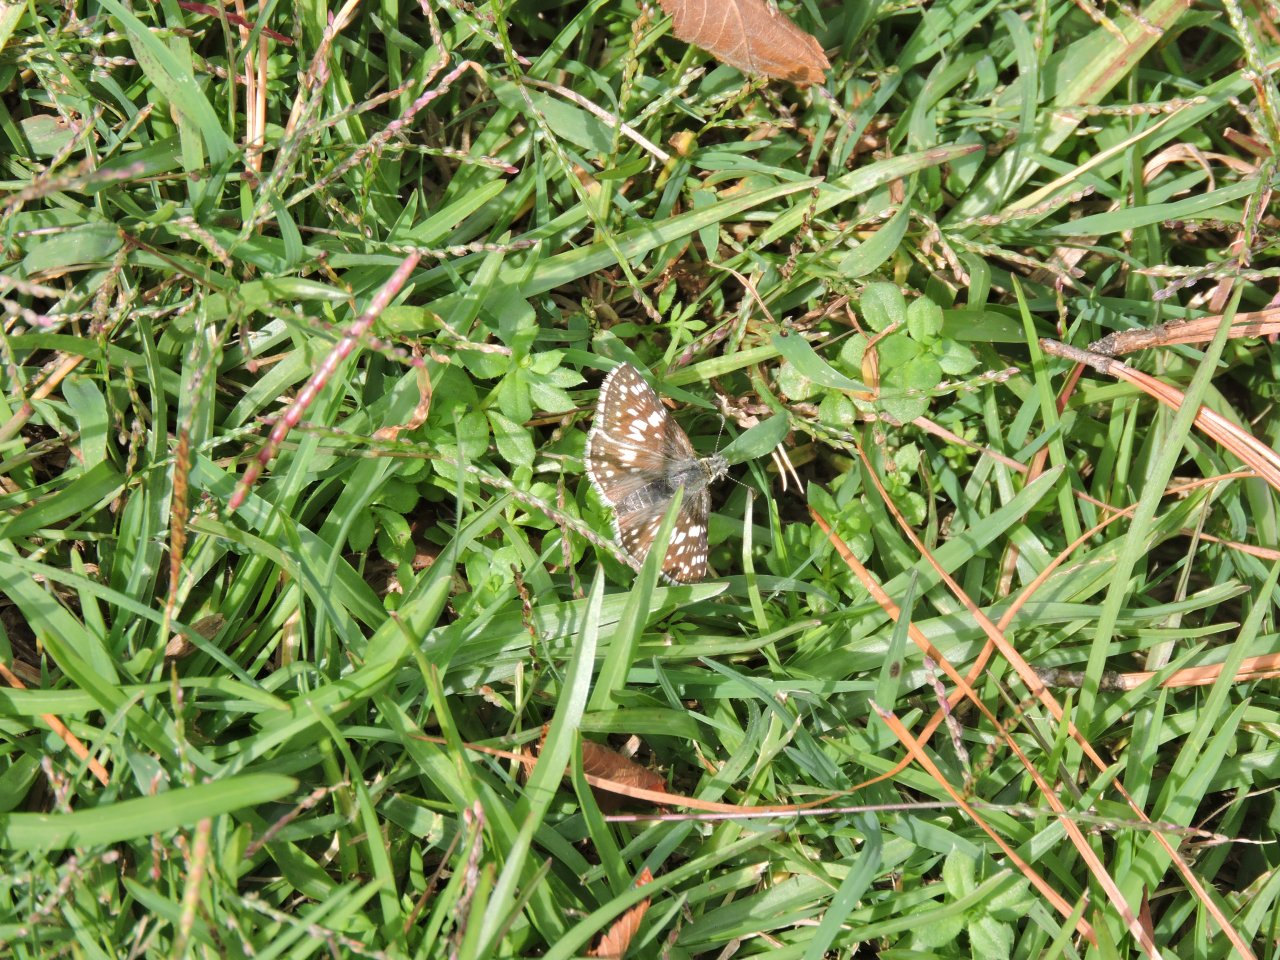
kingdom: Animalia
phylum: Arthropoda
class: Insecta
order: Lepidoptera
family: Hesperiidae
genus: Pyrgus
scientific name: Pyrgus
